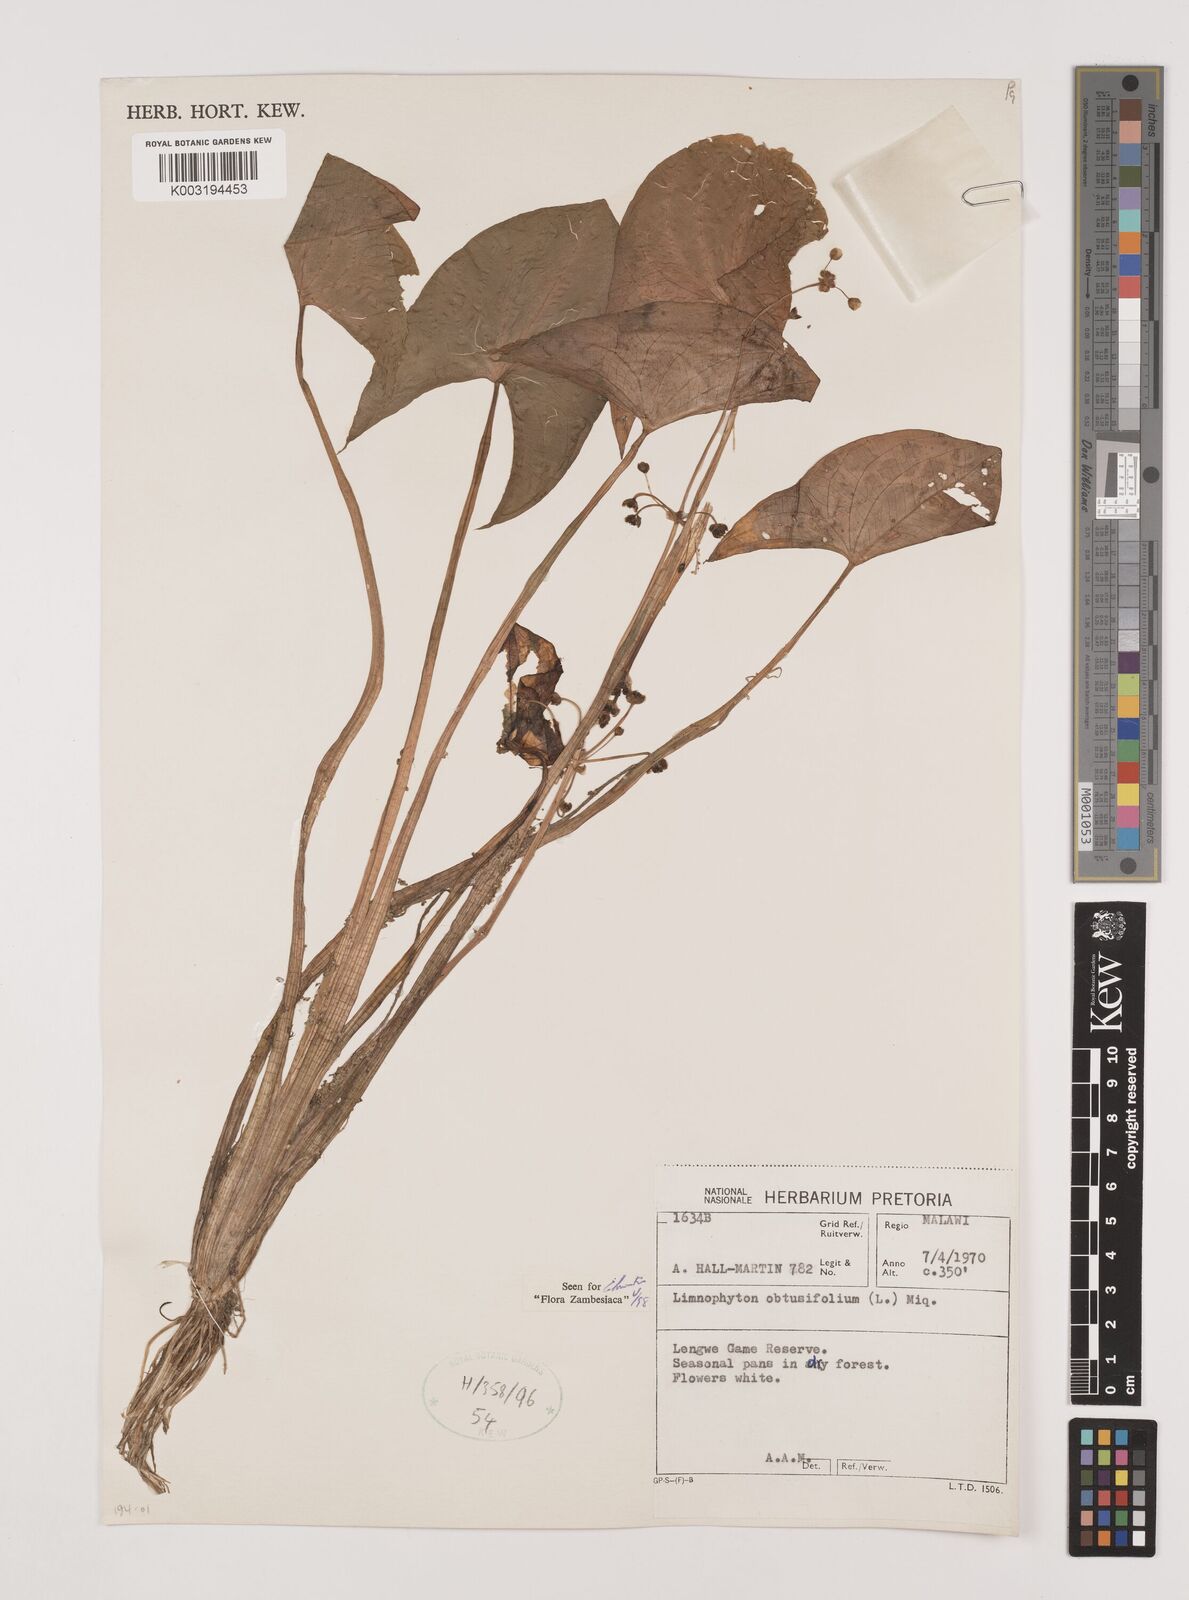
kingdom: Plantae
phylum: Tracheophyta
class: Liliopsida
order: Alismatales
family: Alismataceae
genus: Limnophyton
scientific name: Limnophyton obtusifolium
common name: Arrow head
